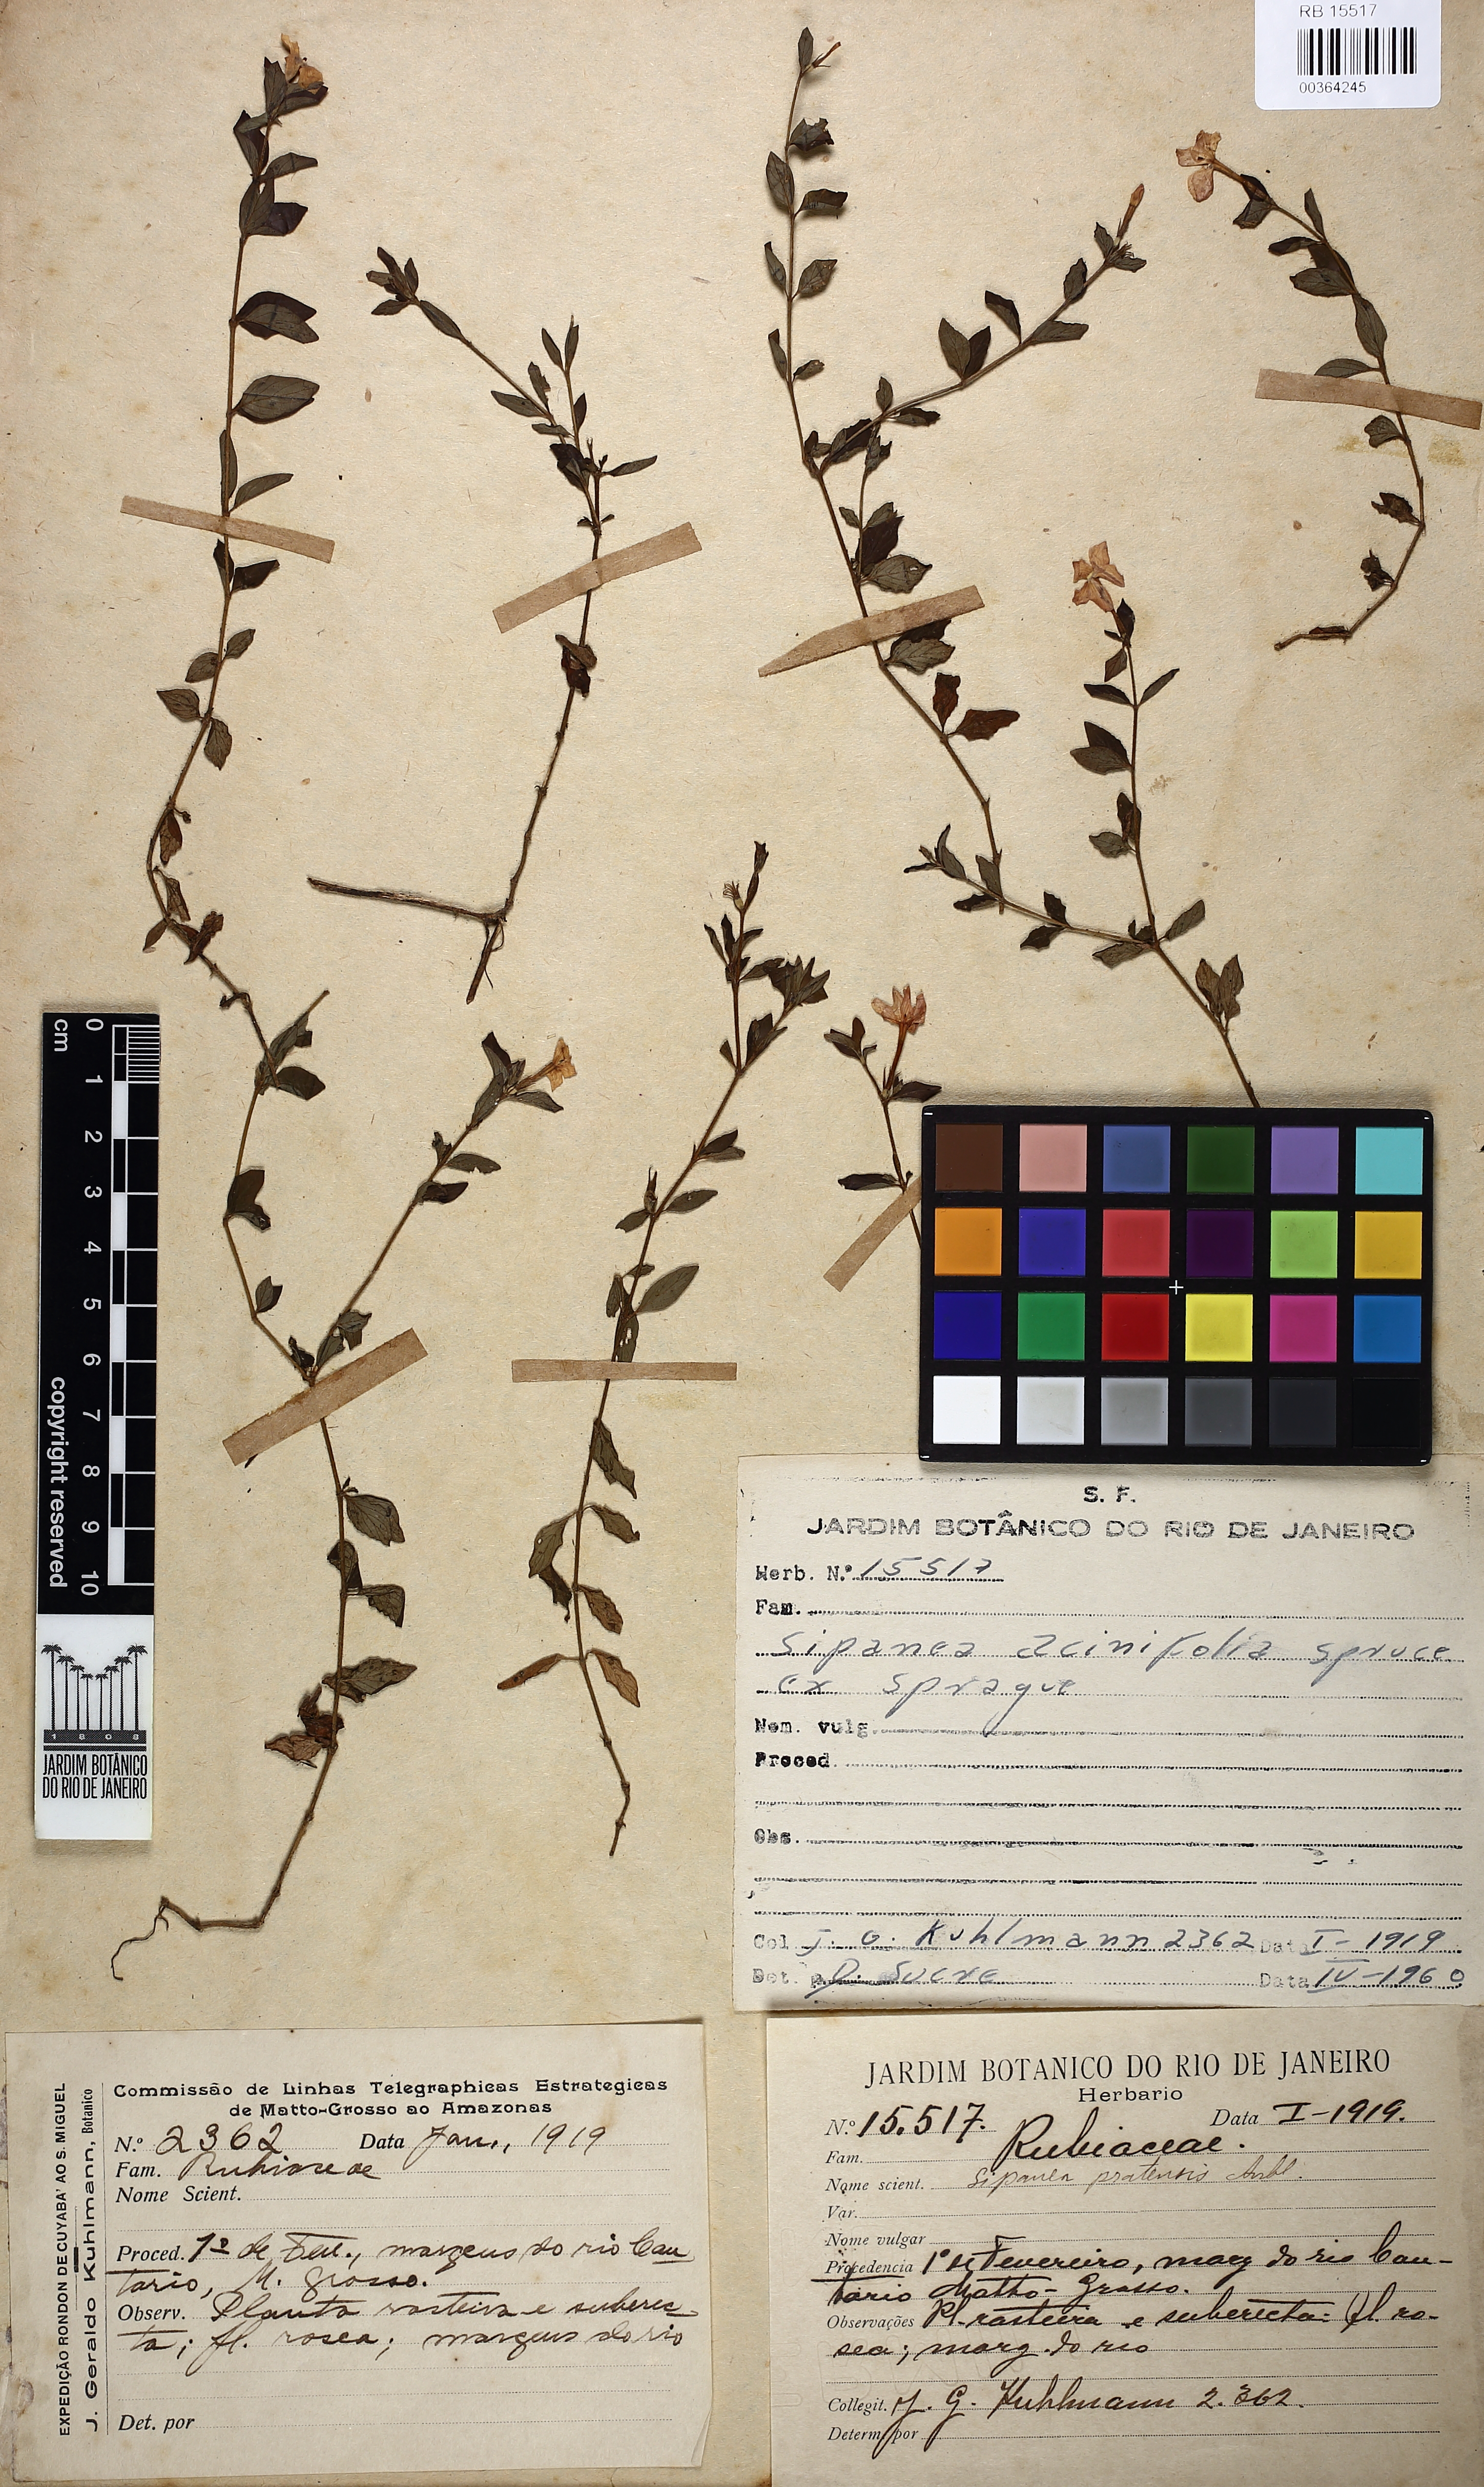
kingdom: Plantae
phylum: Tracheophyta
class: Magnoliopsida
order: Gentianales
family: Rubiaceae
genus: Sipanea
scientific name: Sipanea veris
